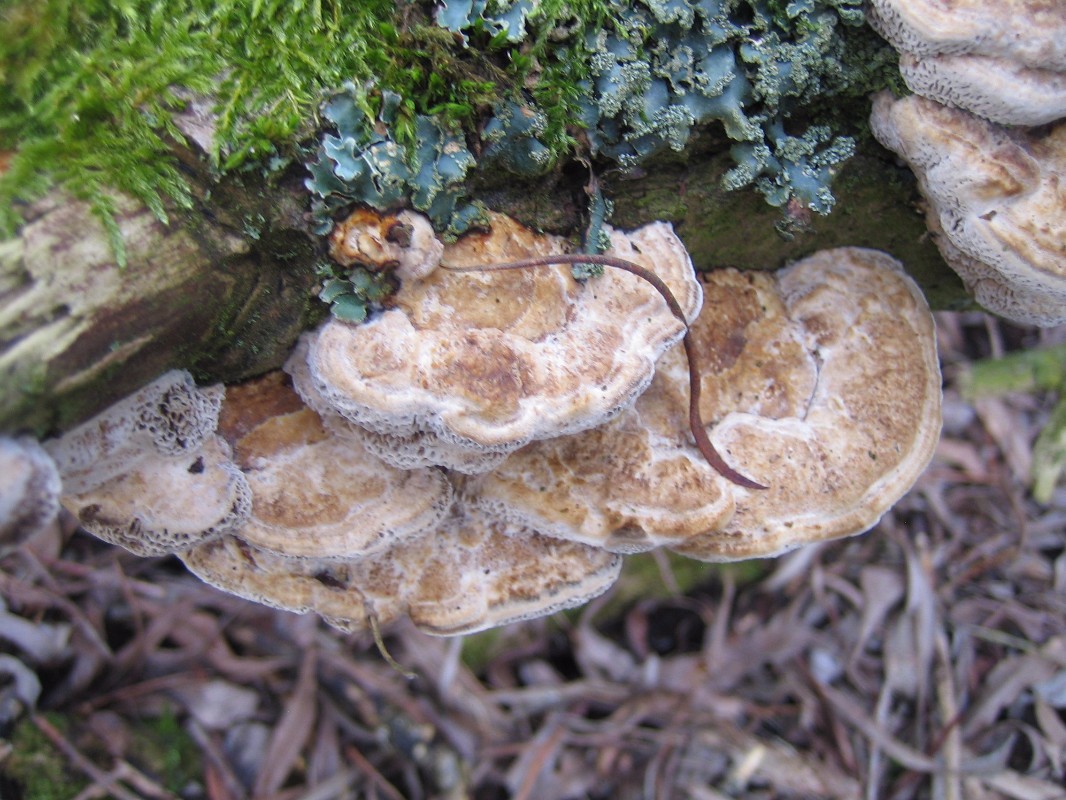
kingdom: Fungi
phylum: Basidiomycota
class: Agaricomycetes
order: Polyporales
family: Polyporaceae
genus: Daedaleopsis
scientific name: Daedaleopsis confragosa
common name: rødmende læderporesvamp
